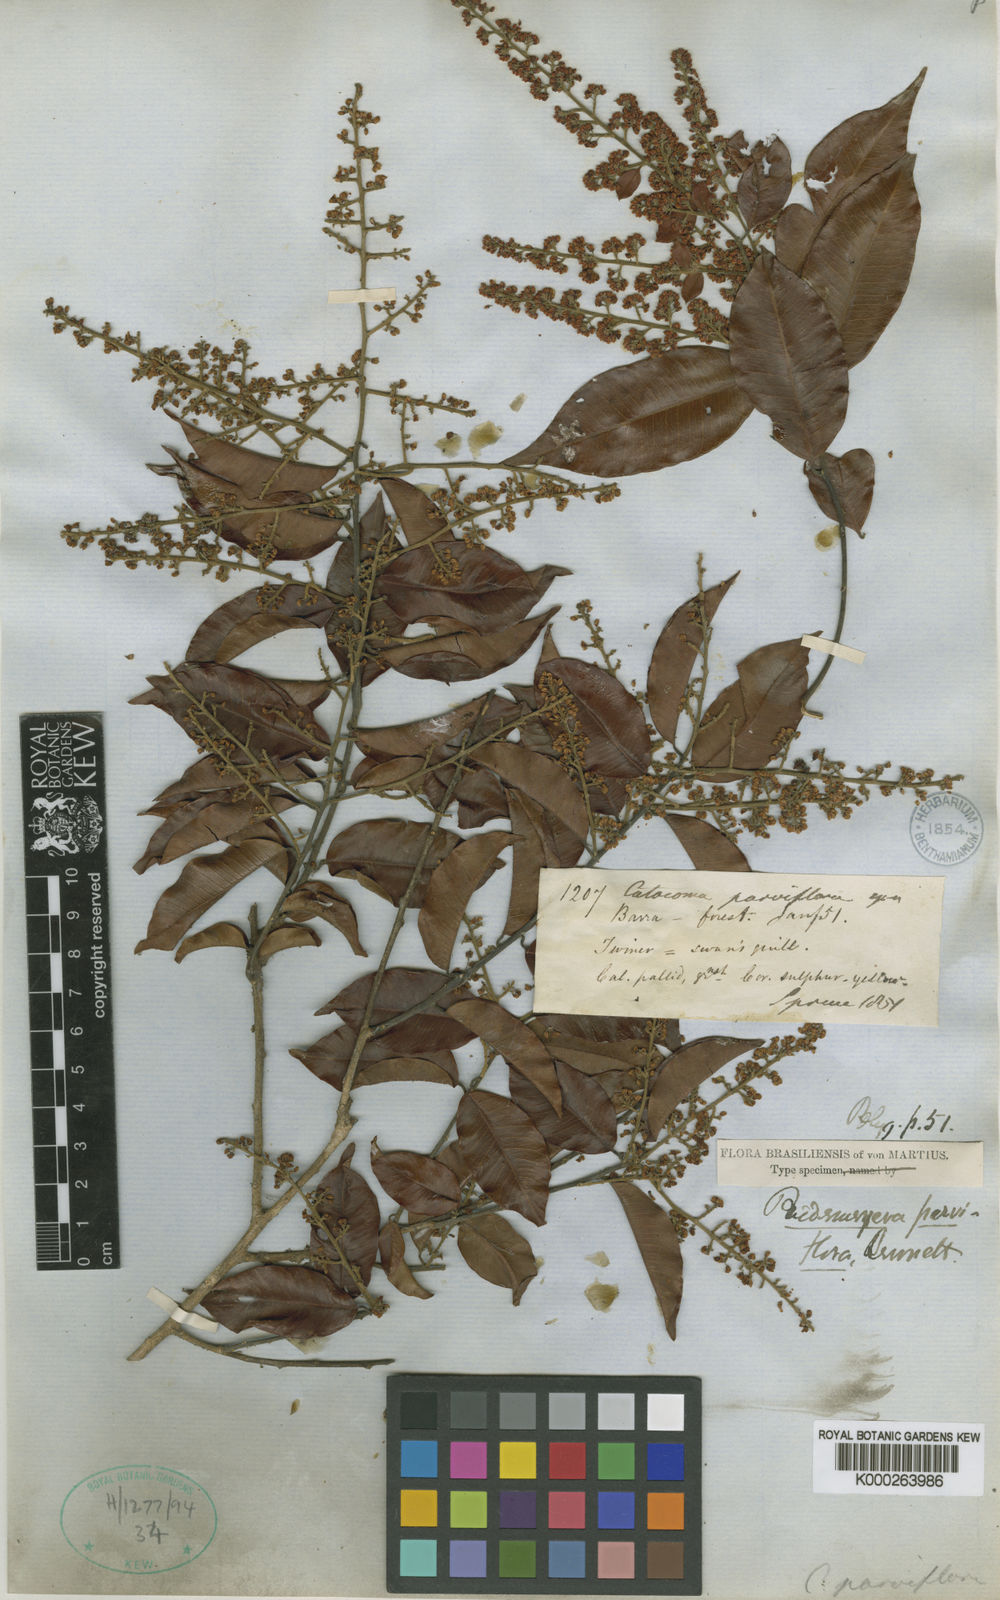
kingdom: Plantae
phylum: Tracheophyta
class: Magnoliopsida
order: Fabales
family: Polygalaceae
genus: Bredemeyera
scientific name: Bredemeyera myrtifolia
